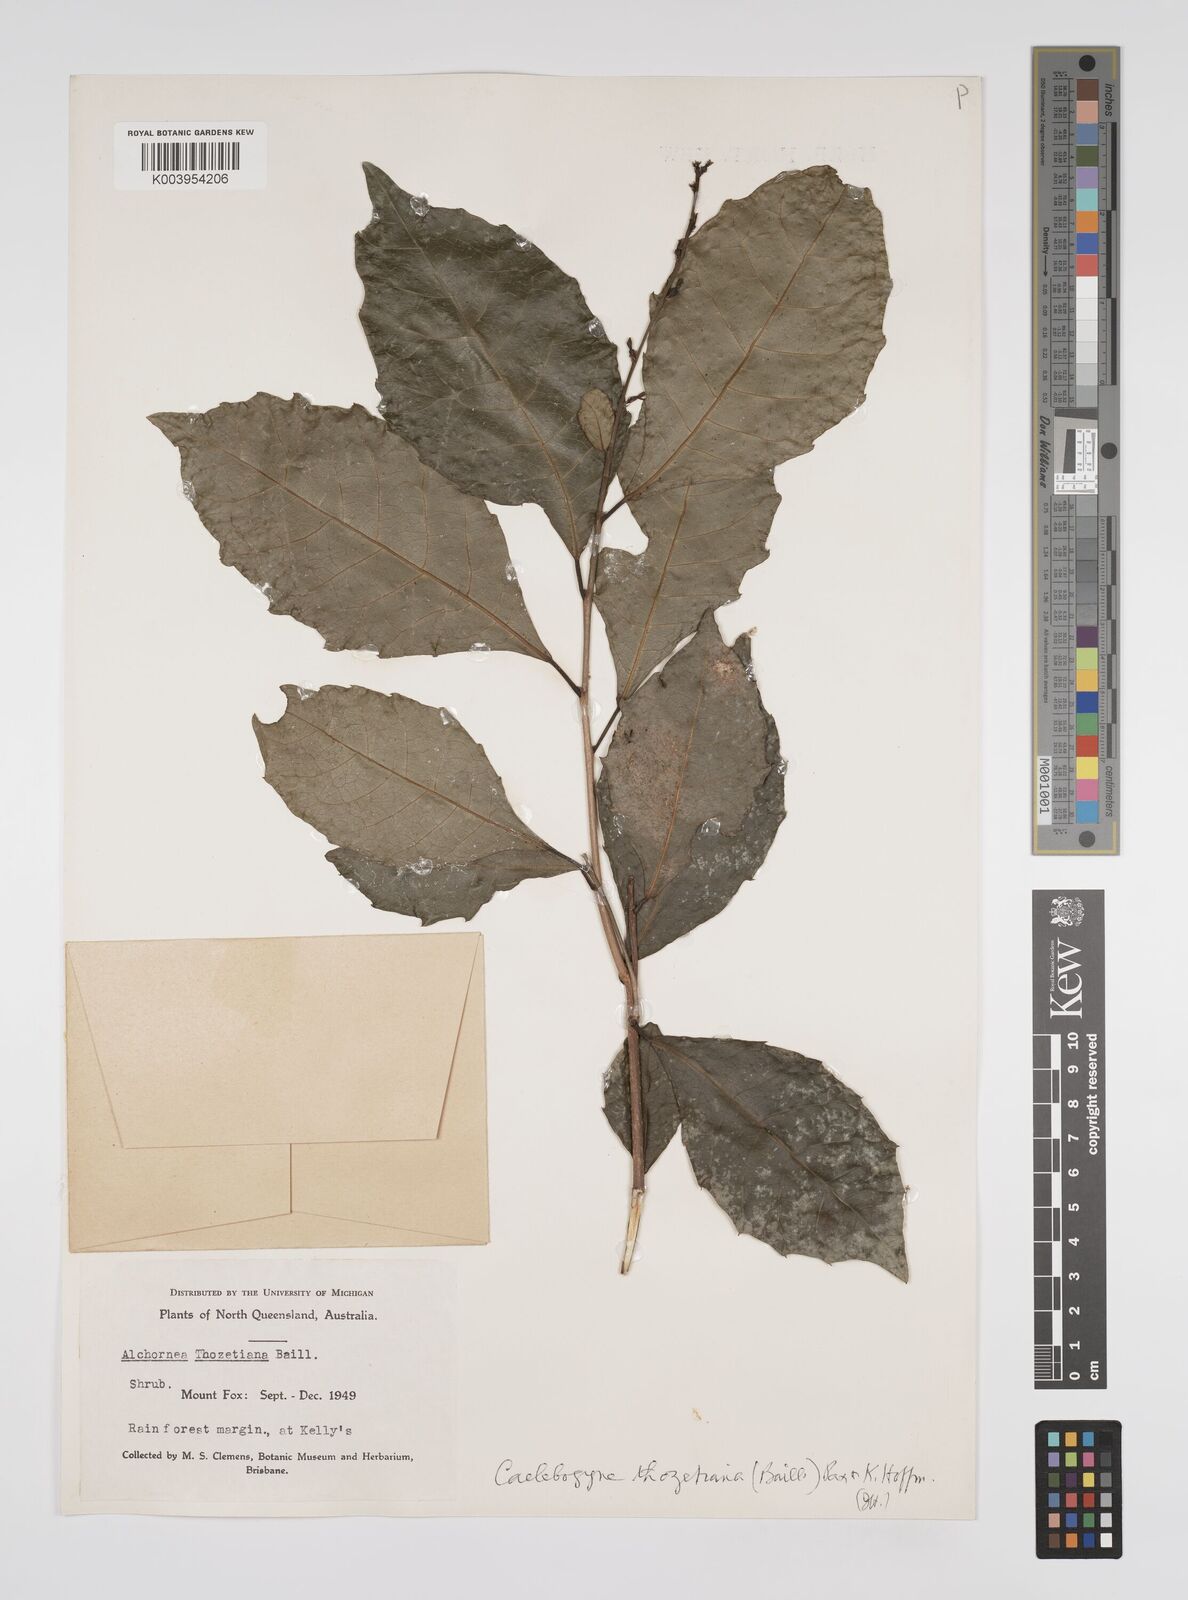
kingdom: Plantae
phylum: Tracheophyta
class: Magnoliopsida
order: Malpighiales
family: Euphorbiaceae
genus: Alchornea
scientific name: Alchornea ilicifolia
